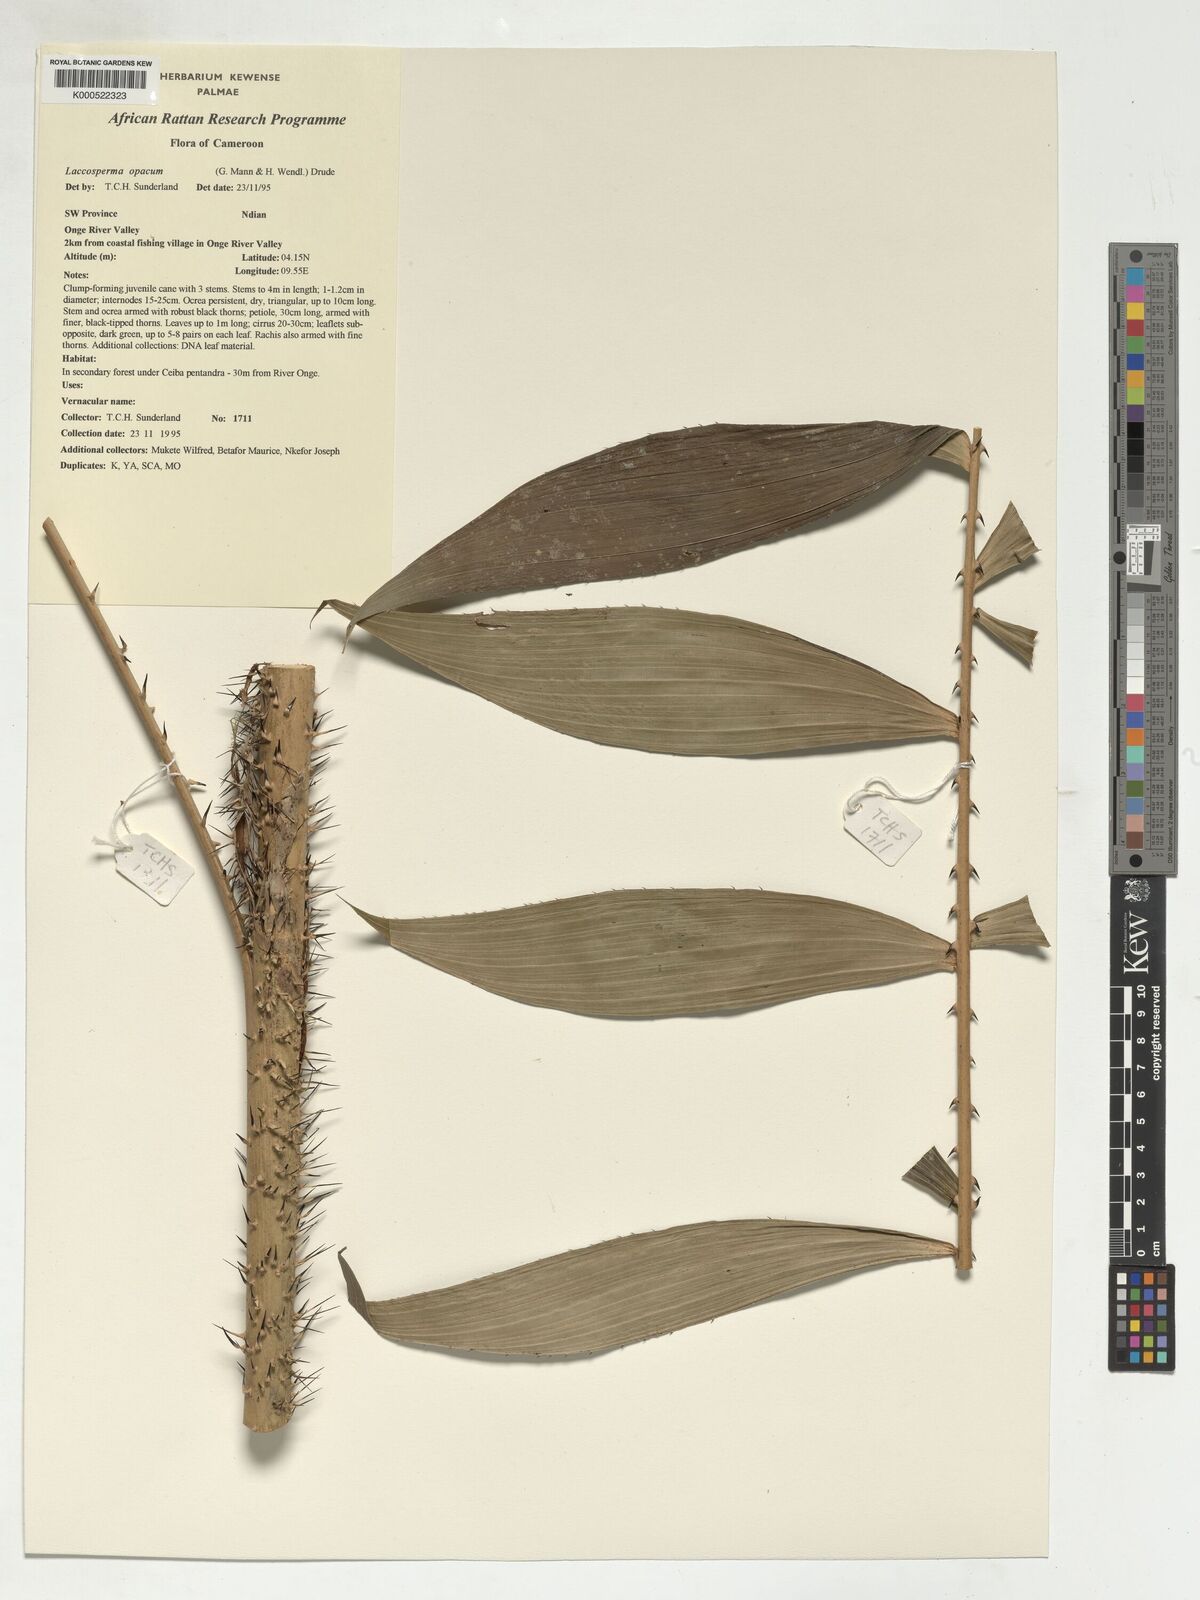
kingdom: Plantae
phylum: Tracheophyta
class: Liliopsida
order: Arecales
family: Arecaceae
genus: Laccosperma
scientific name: Laccosperma opacum
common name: Rattan
